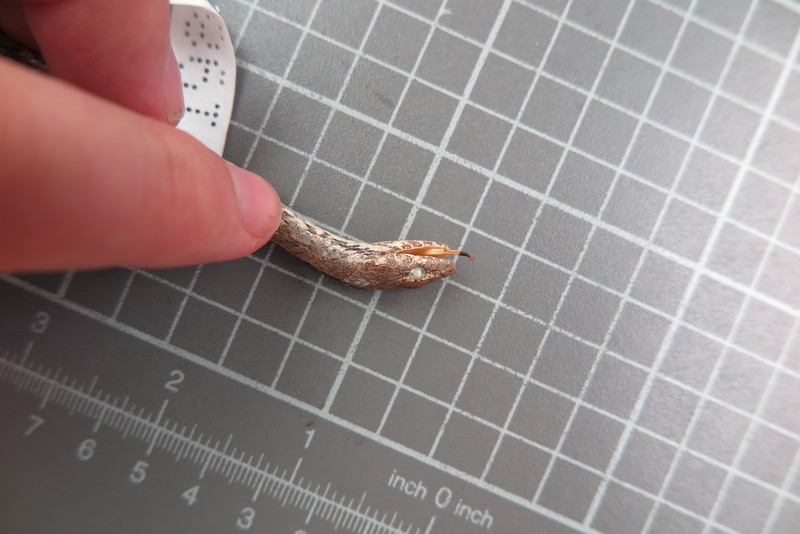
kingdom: Animalia
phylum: Chordata
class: Squamata
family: Psammophiidae
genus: Mimophis
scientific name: Mimophis
